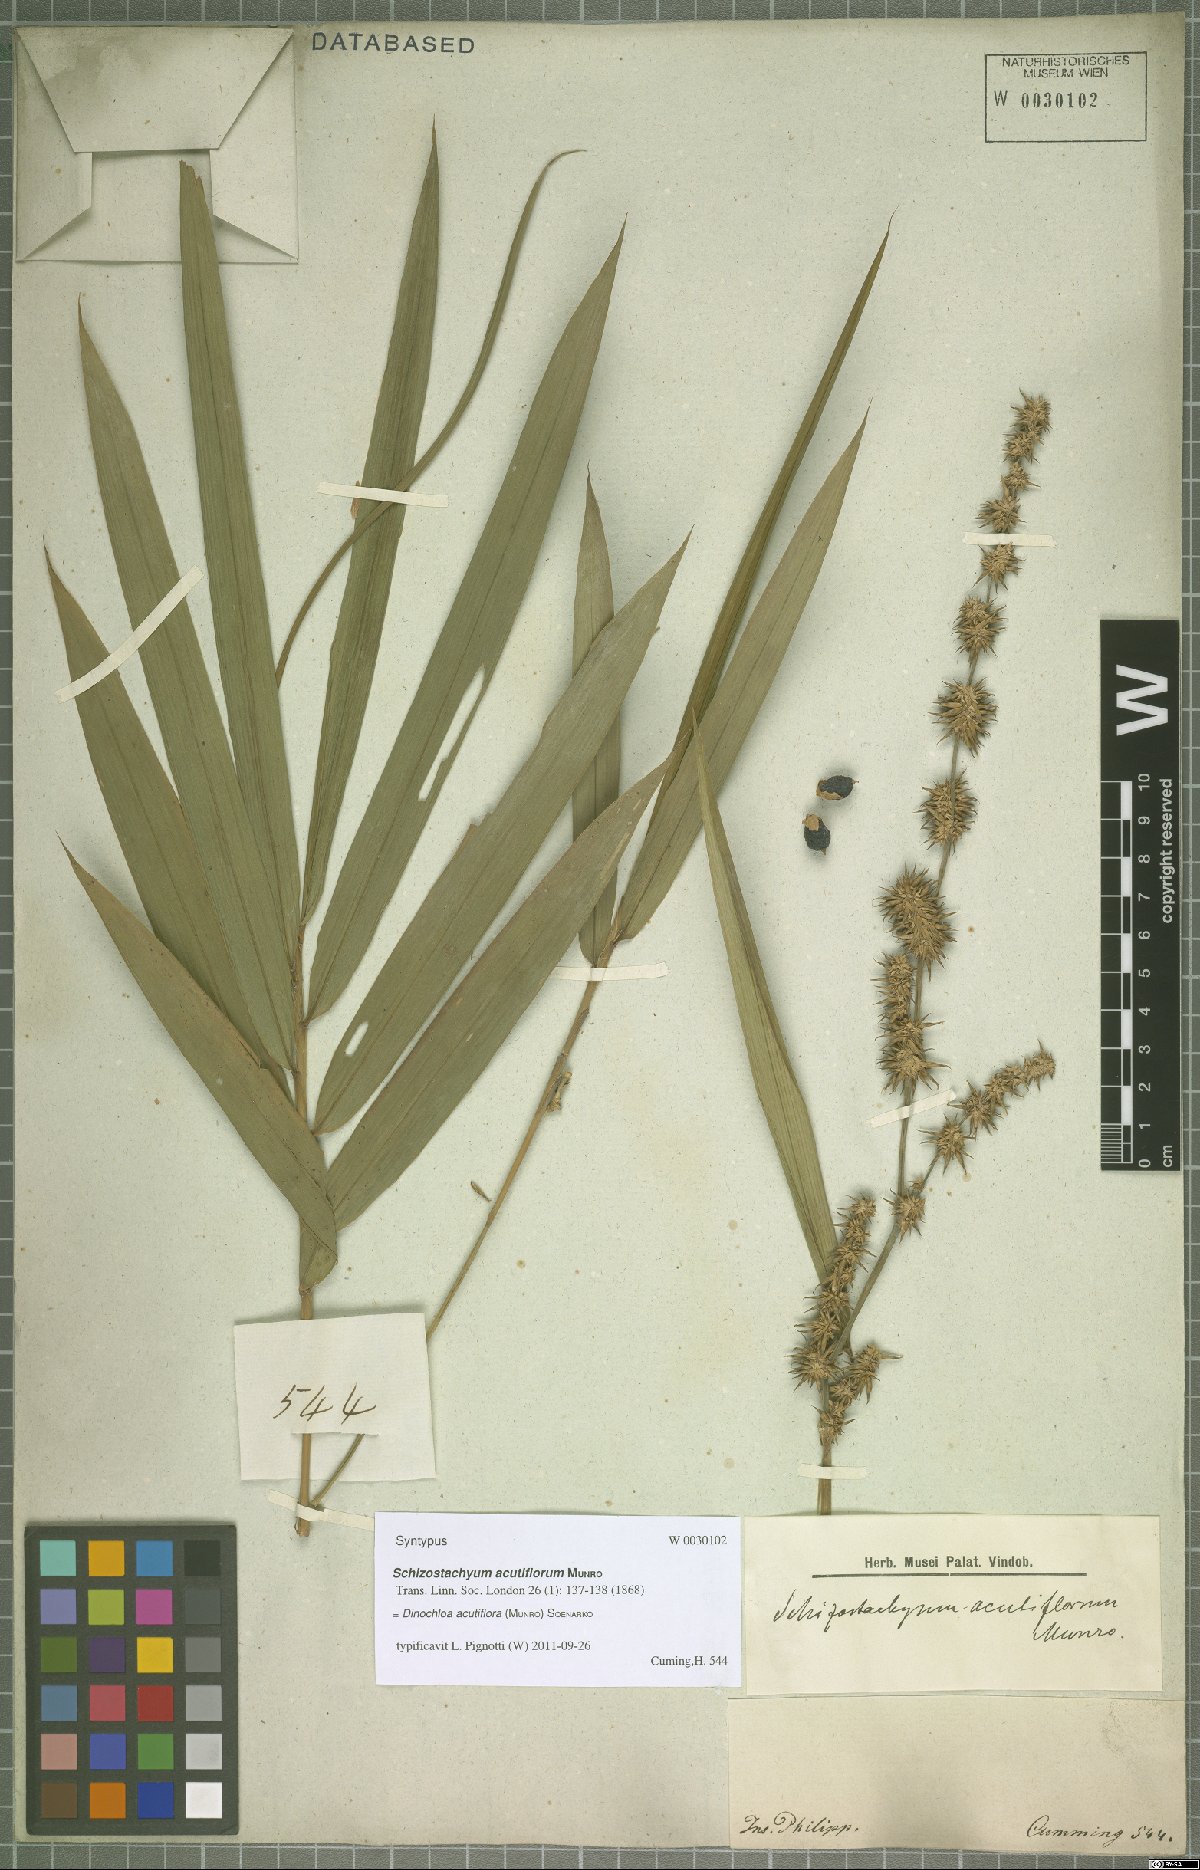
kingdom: Plantae
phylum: Tracheophyta
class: Liliopsida
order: Poales
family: Poaceae
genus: Dinochloa
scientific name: Dinochloa acutiflora
